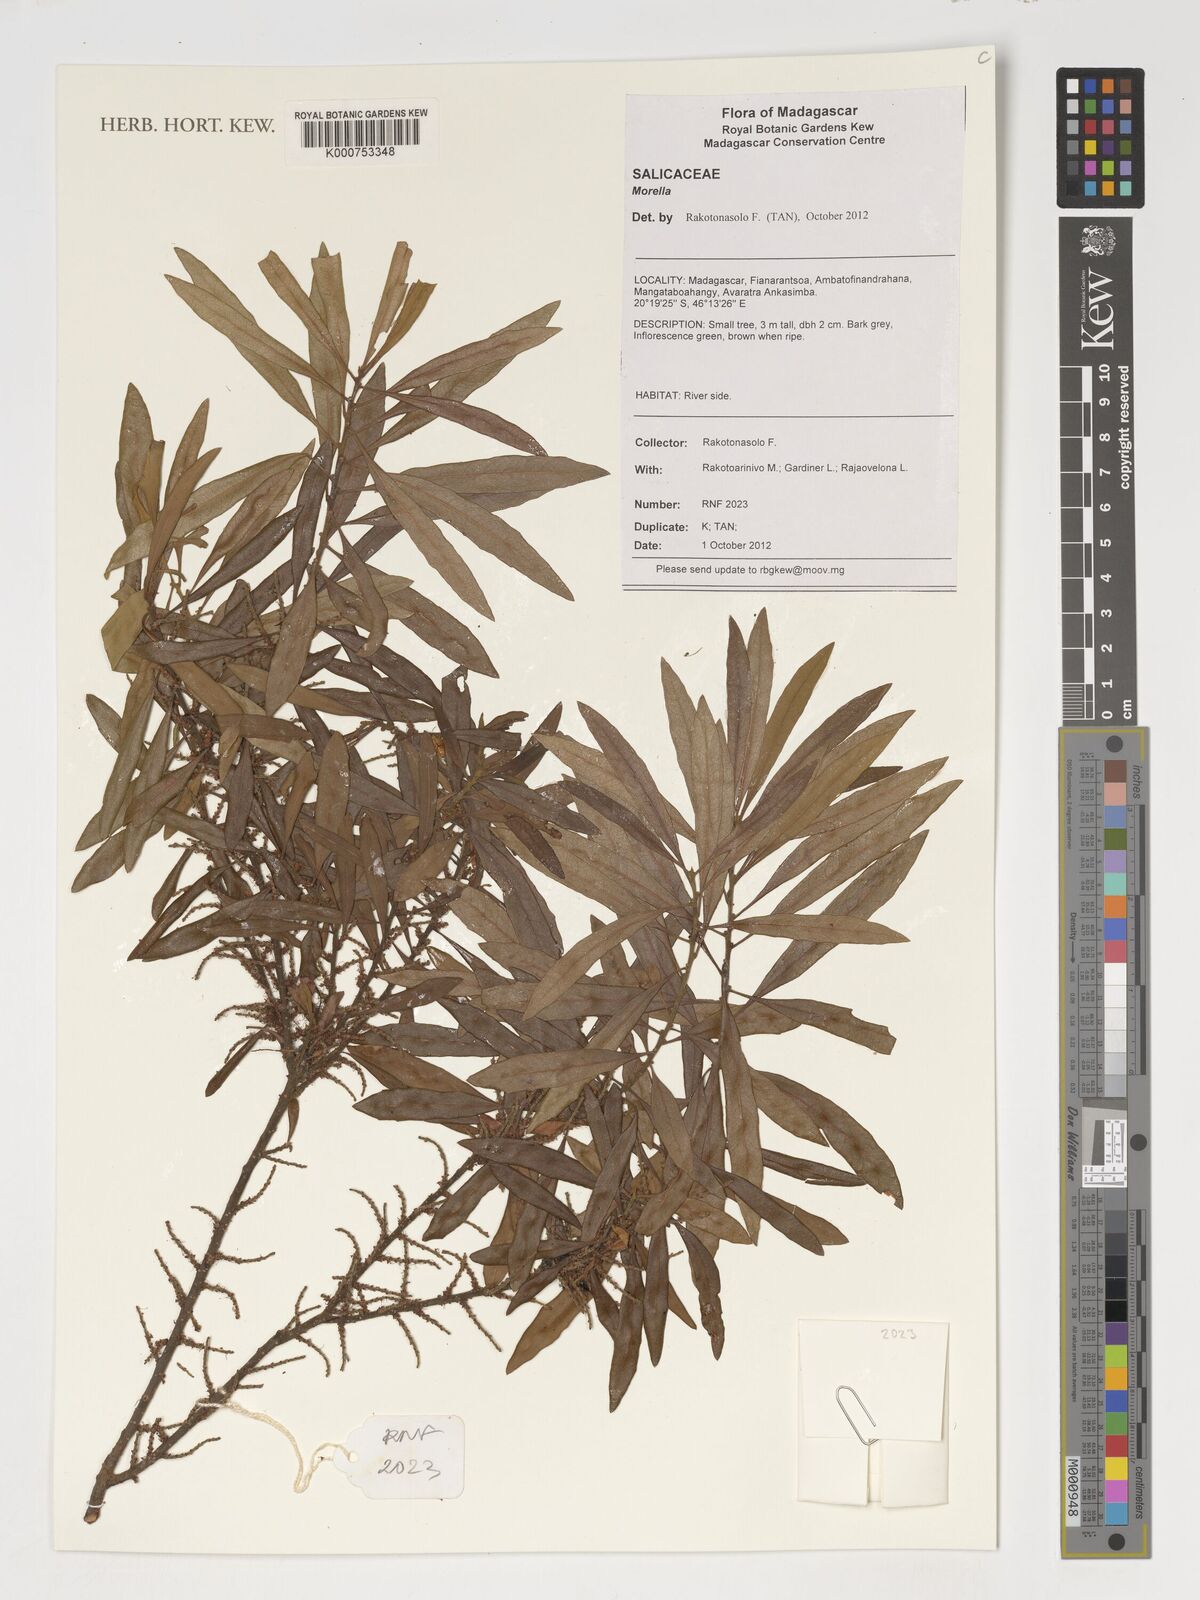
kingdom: Plantae
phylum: Tracheophyta
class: Magnoliopsida
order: Malpighiales
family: Salicaceae
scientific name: Salicaceae
